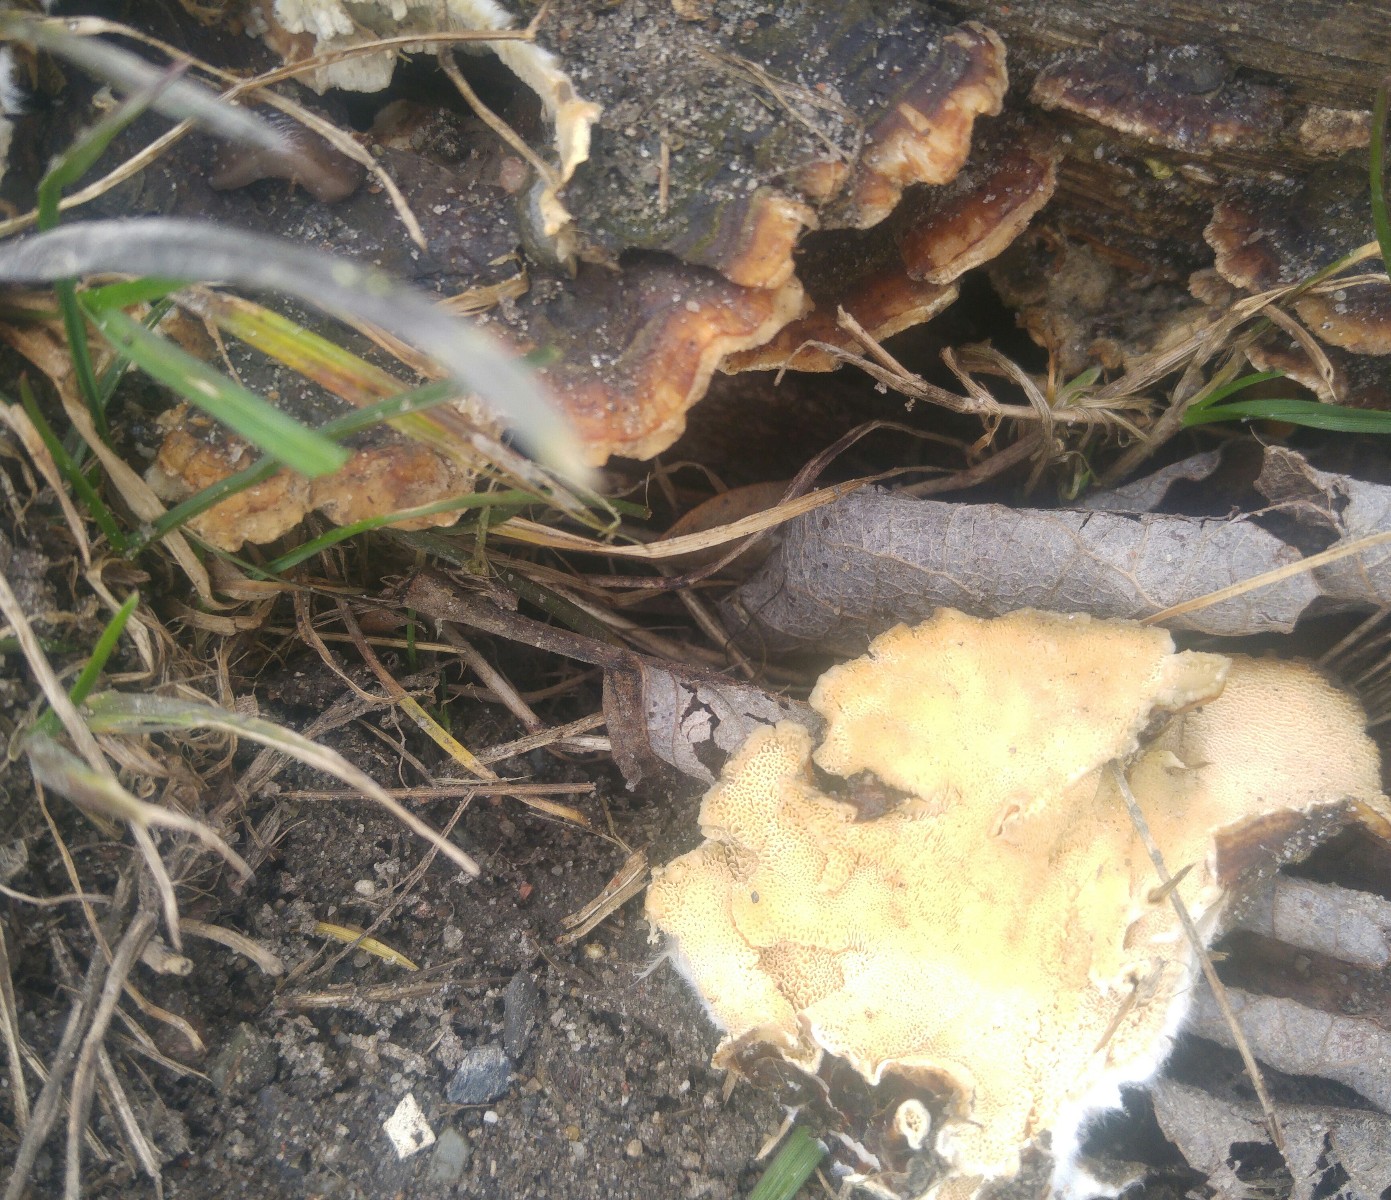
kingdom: Fungi
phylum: Basidiomycota
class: Agaricomycetes
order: Polyporales
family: Polyporaceae
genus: Trametes
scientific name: Trametes versicolor
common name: broget læderporesvamp
